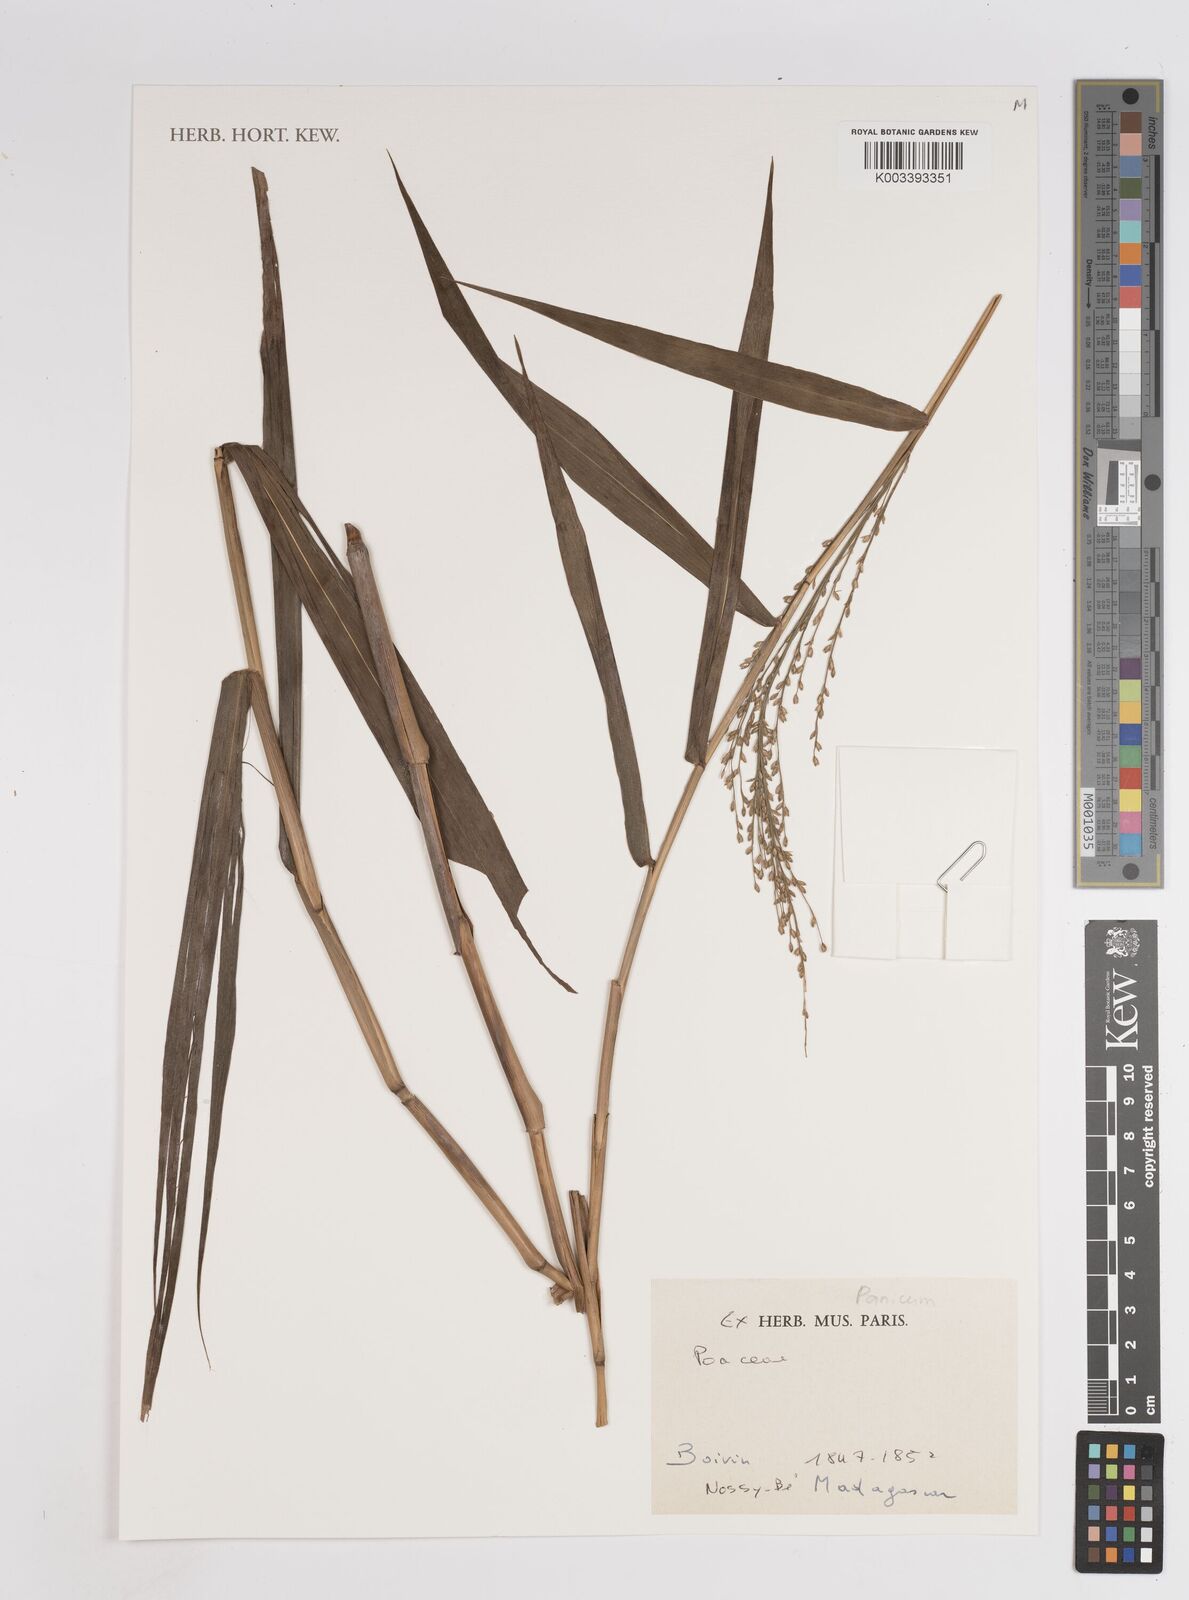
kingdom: Plantae
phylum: Tracheophyta
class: Liliopsida
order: Poales
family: Poaceae
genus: Panicum
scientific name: Panicum
